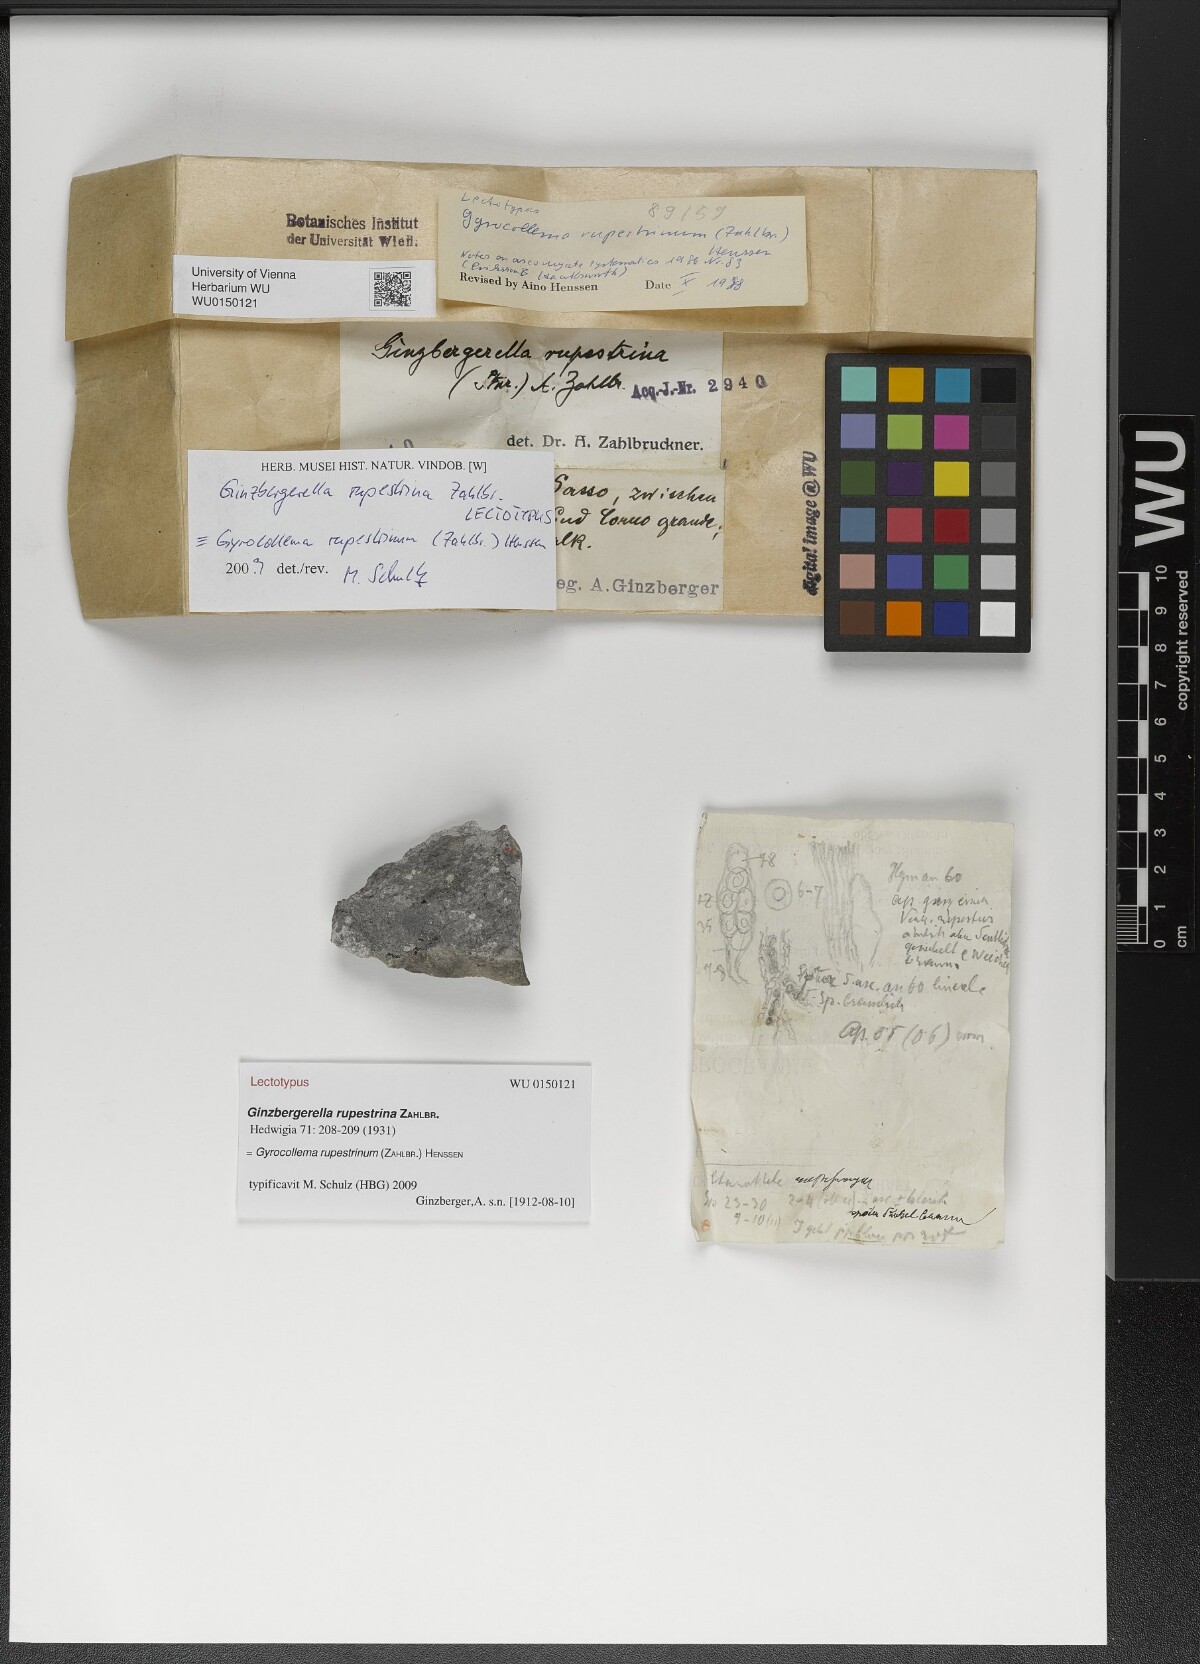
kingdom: Fungi
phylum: Ascomycota
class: Lichinomycetes
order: Lichinales
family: Lichinaceae
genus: Gyrocollema
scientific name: Gyrocollema
